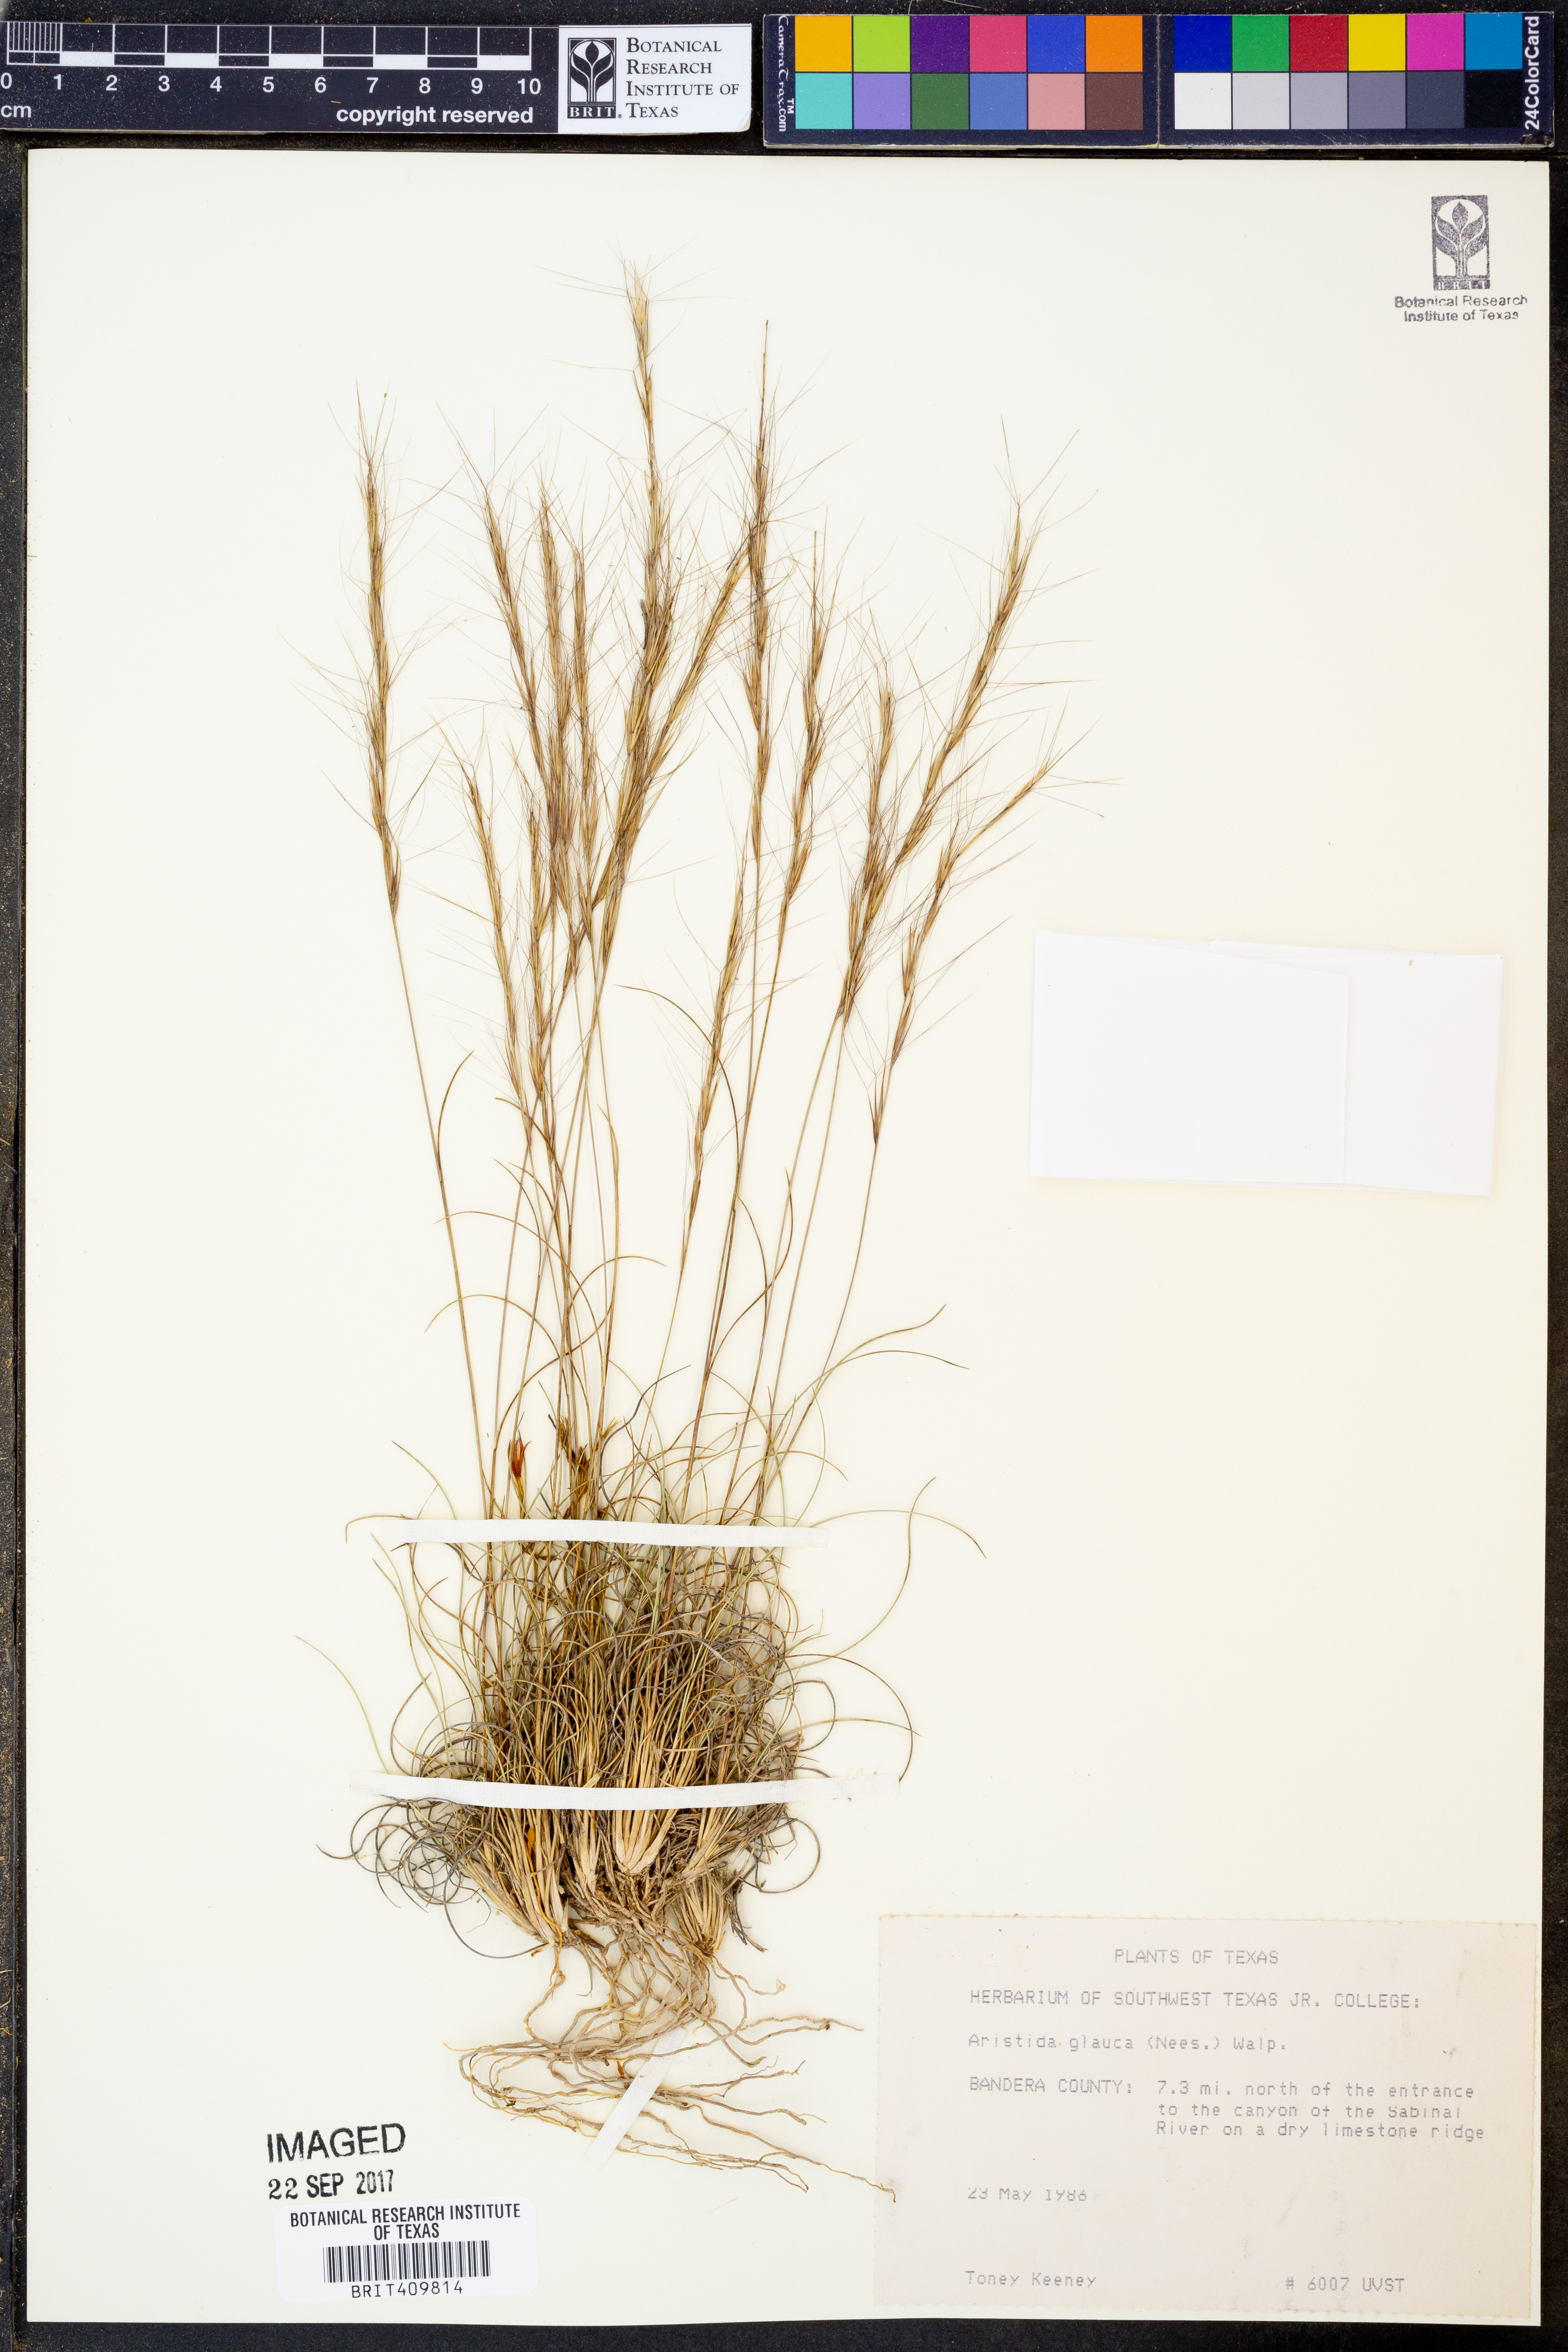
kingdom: Plantae
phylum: Tracheophyta
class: Liliopsida
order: Poales
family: Poaceae
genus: Aristida
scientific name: Aristida glauca
